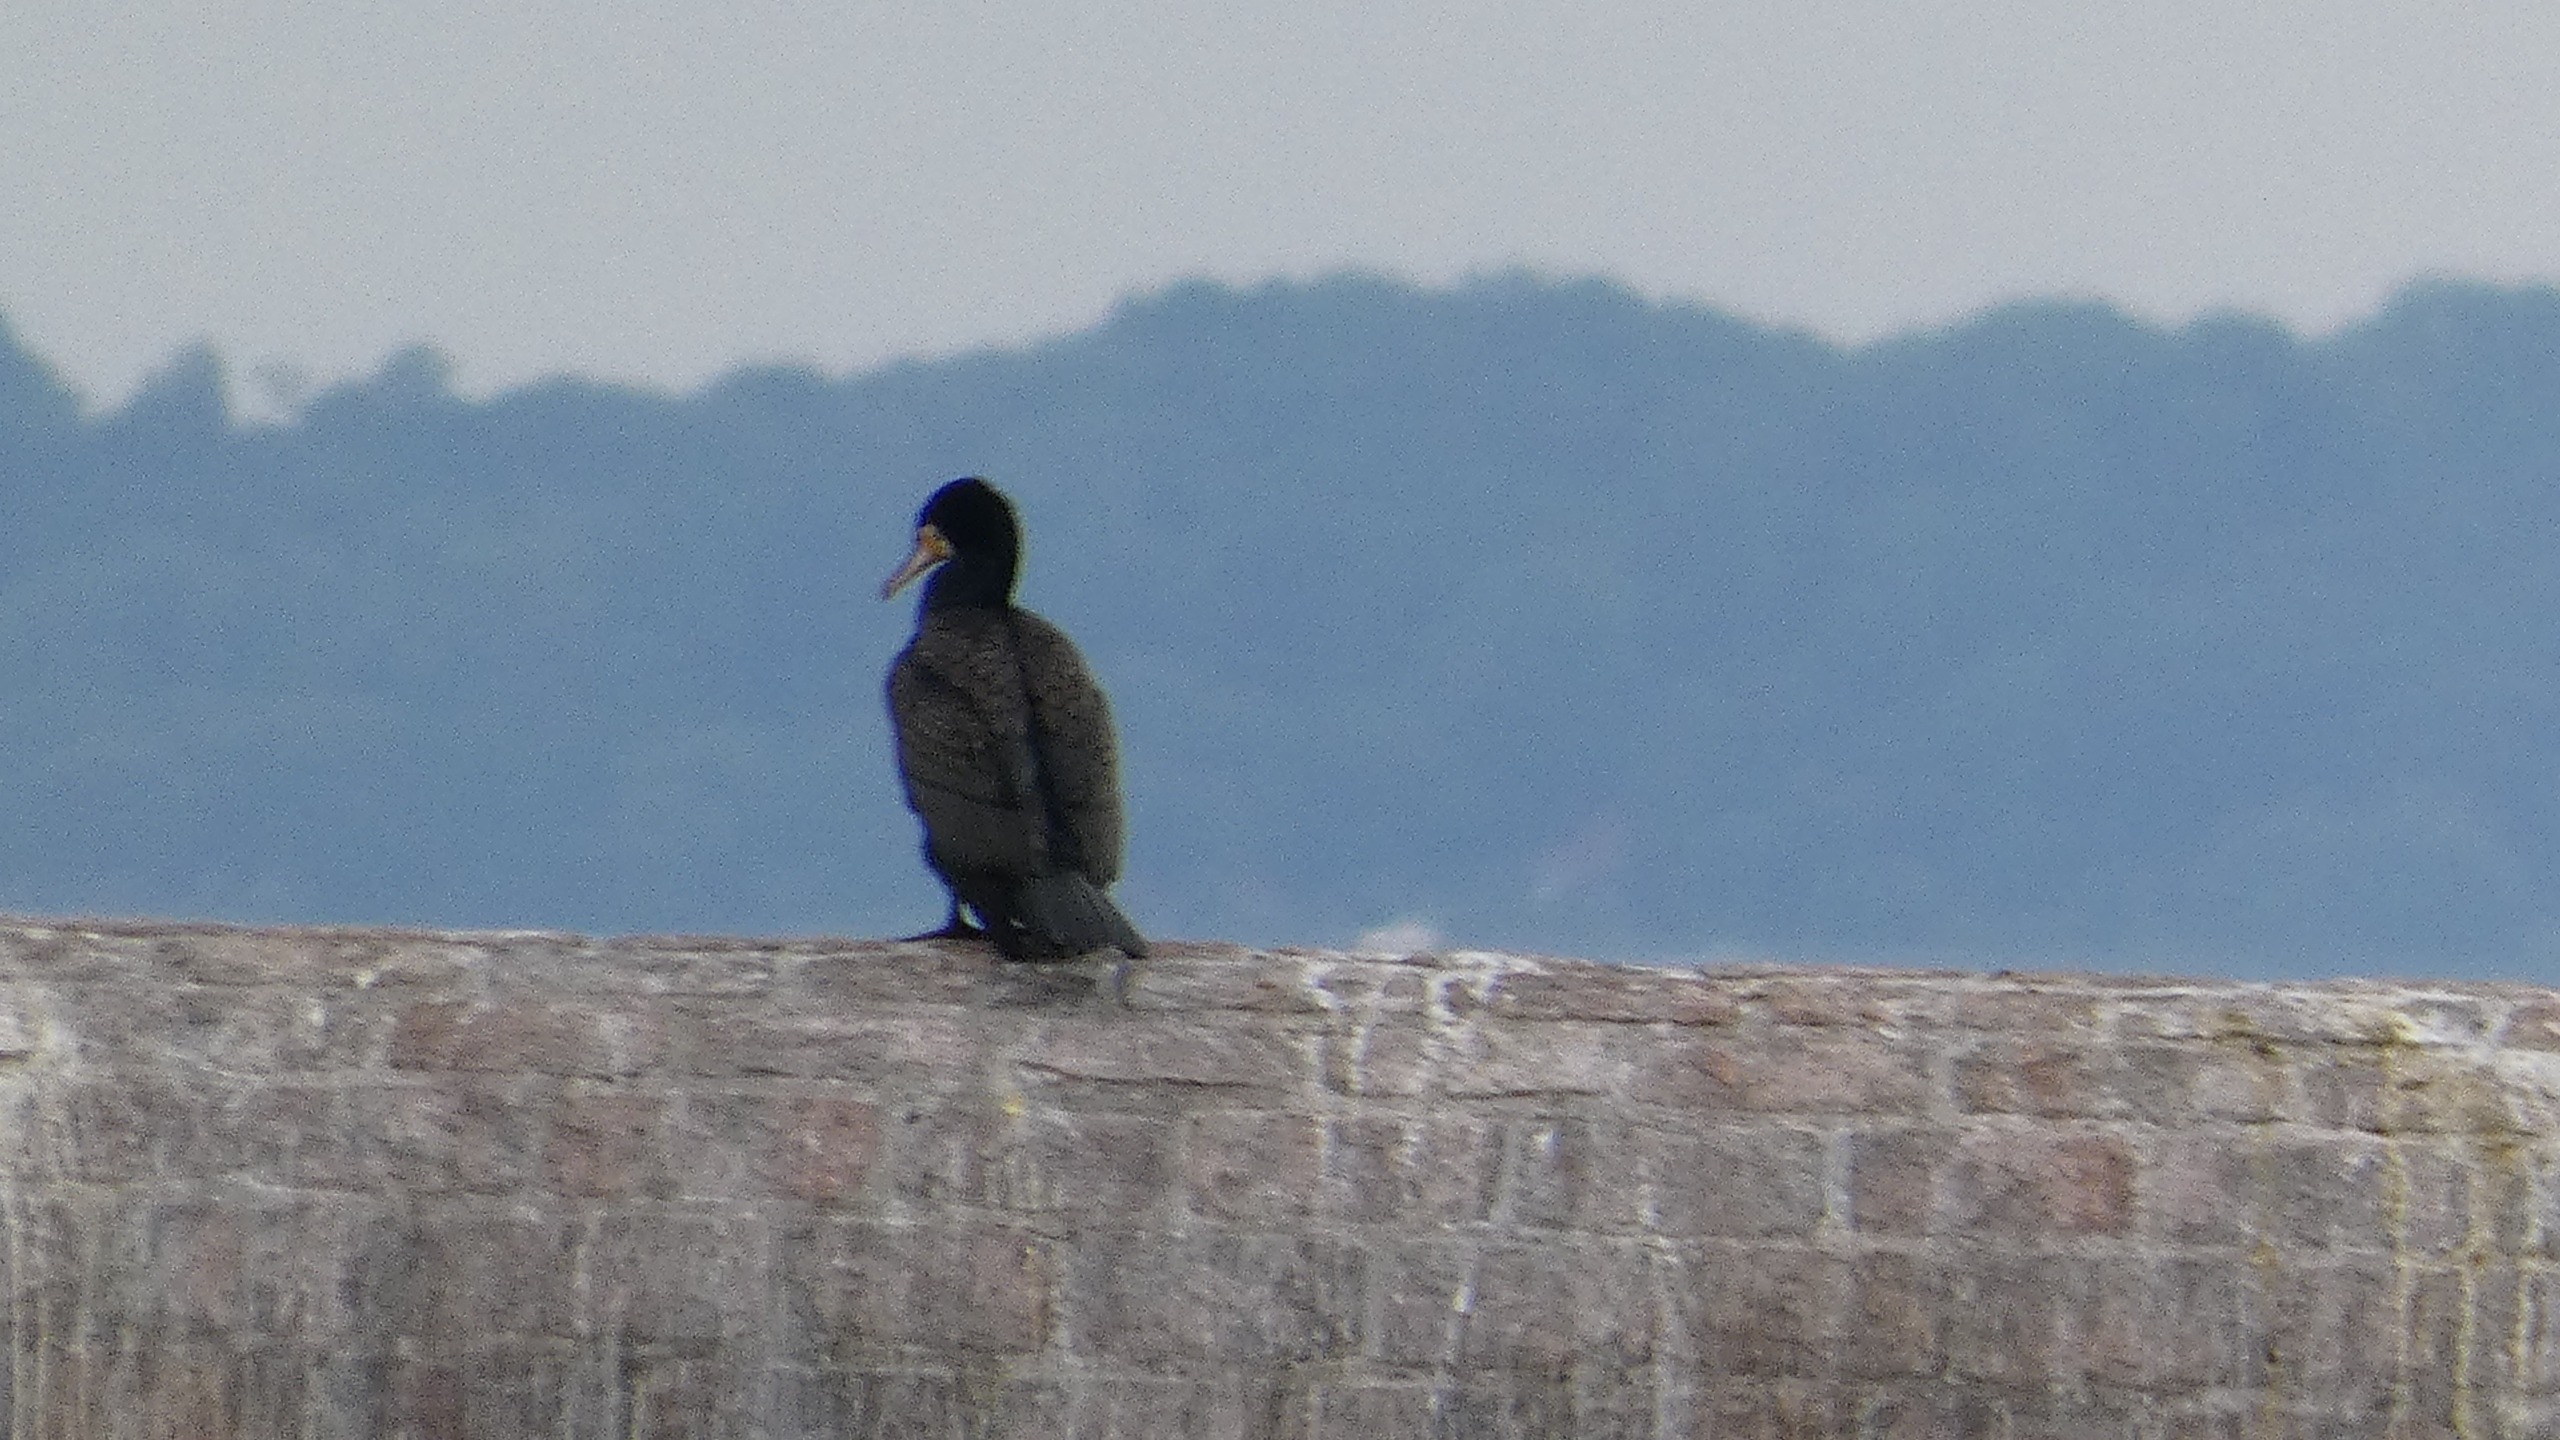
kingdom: Animalia
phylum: Chordata
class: Aves
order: Suliformes
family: Phalacrocoracidae
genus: Phalacrocorax
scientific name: Phalacrocorax carbo
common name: Skarv
